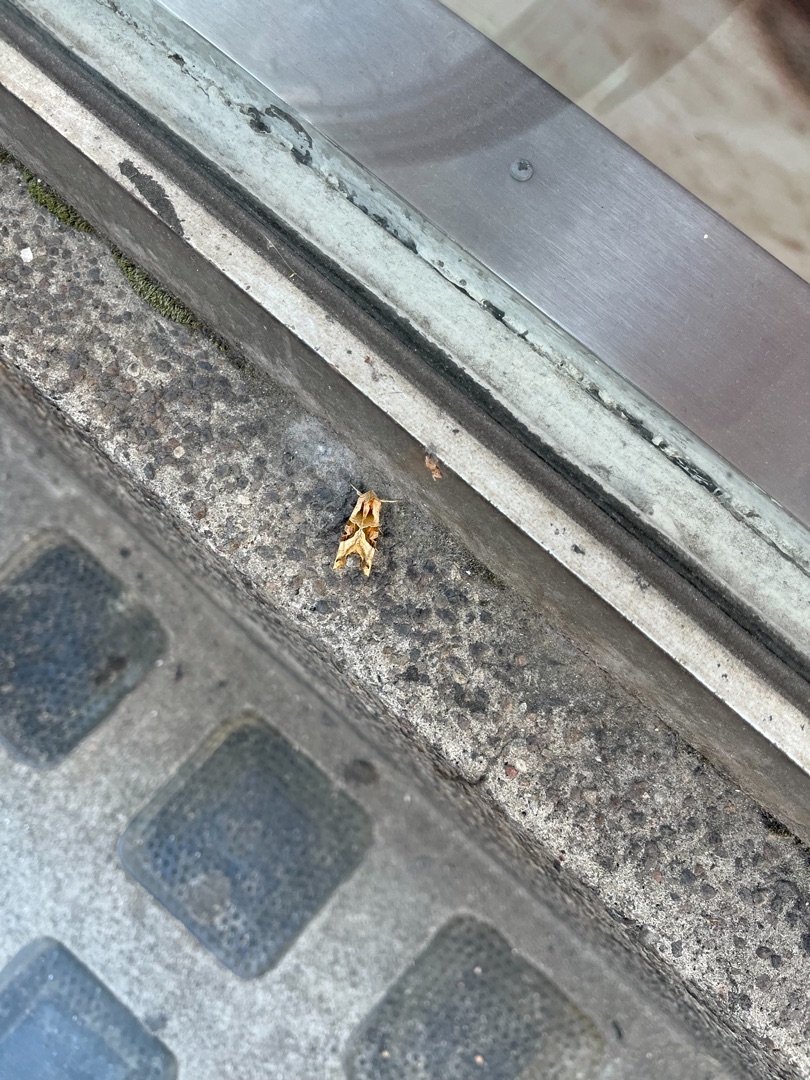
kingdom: Animalia
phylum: Arthropoda
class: Insecta
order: Lepidoptera
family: Noctuidae
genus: Phlogophora
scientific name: Phlogophora meticulosa
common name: Agatugle
